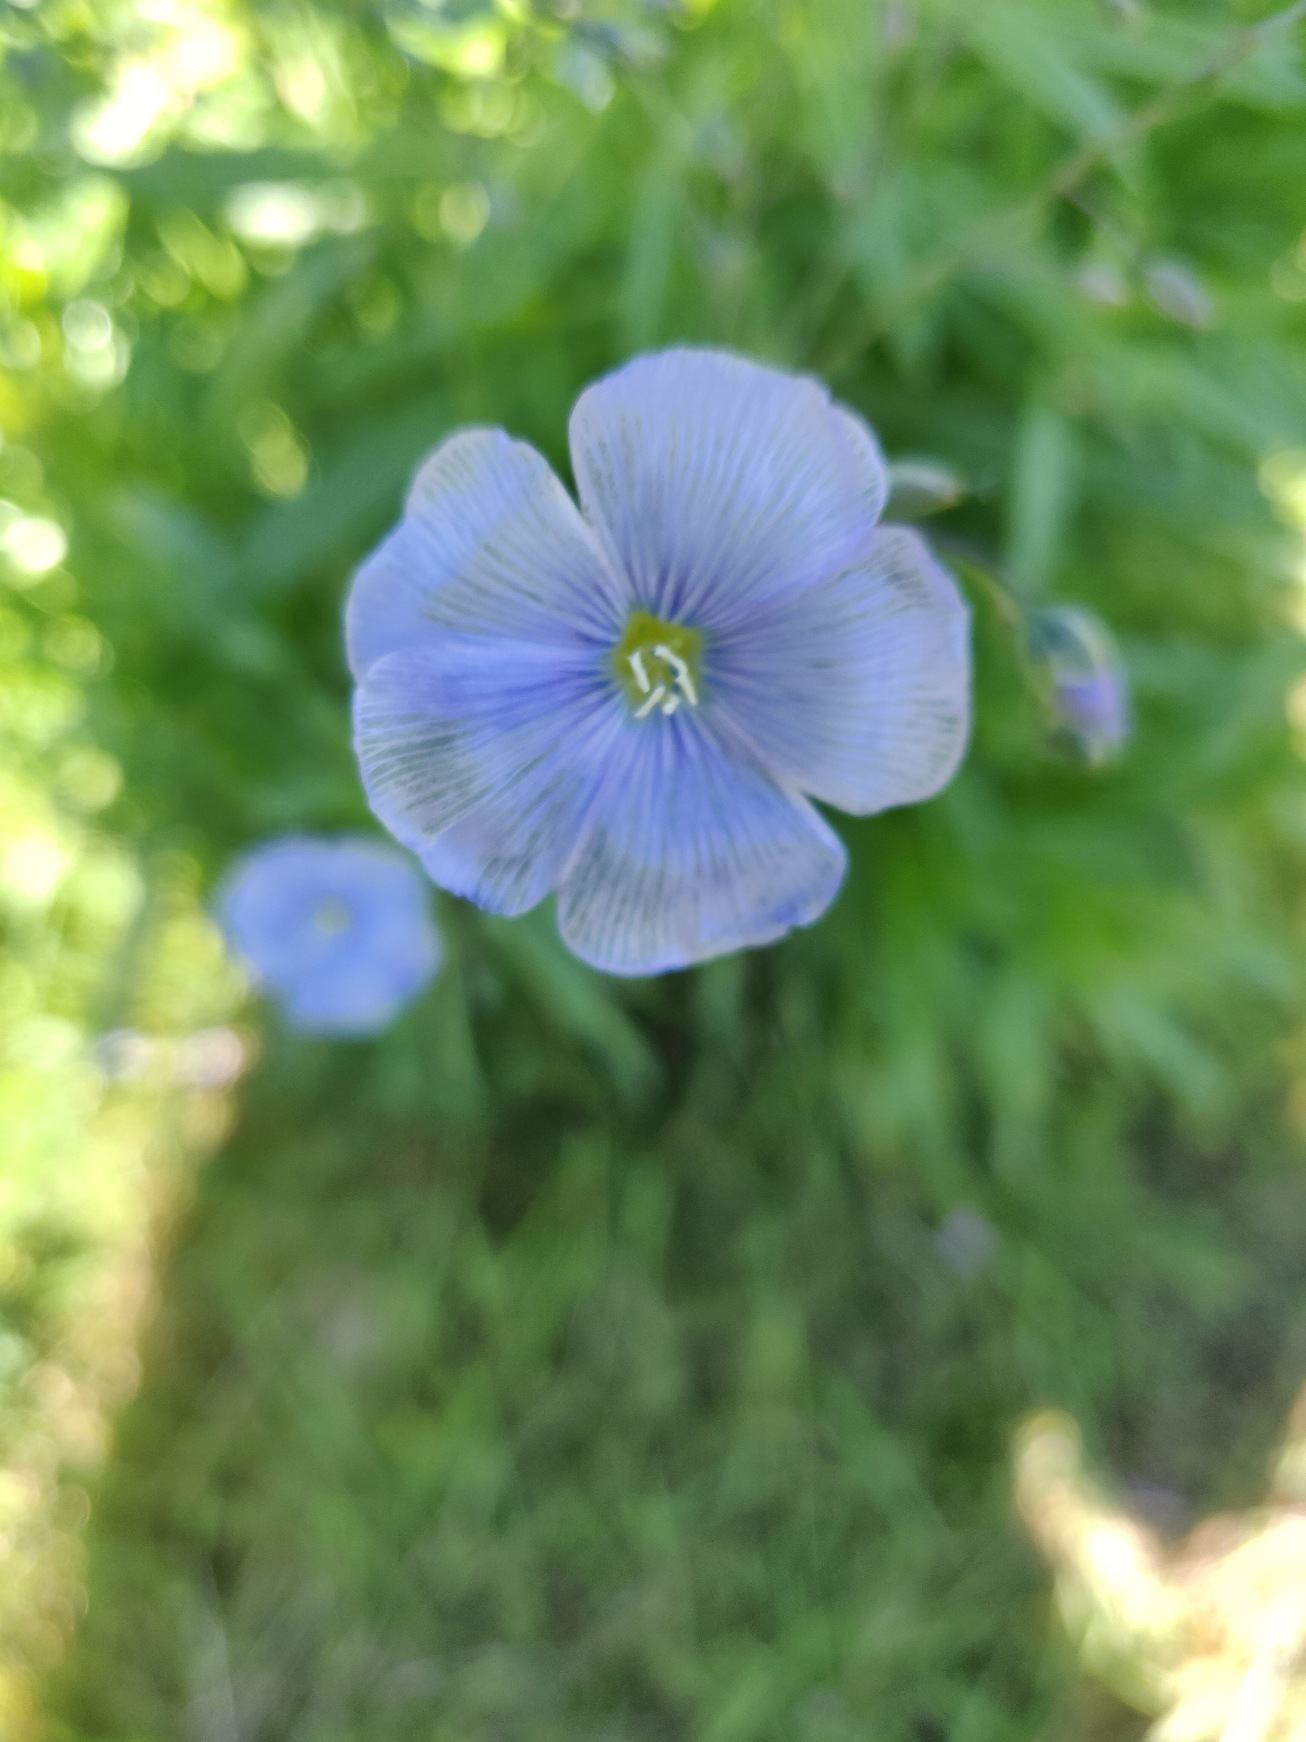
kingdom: Plantae
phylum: Tracheophyta
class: Magnoliopsida
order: Malpighiales
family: Linaceae
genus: Linum
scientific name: Linum
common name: Hørslægten
